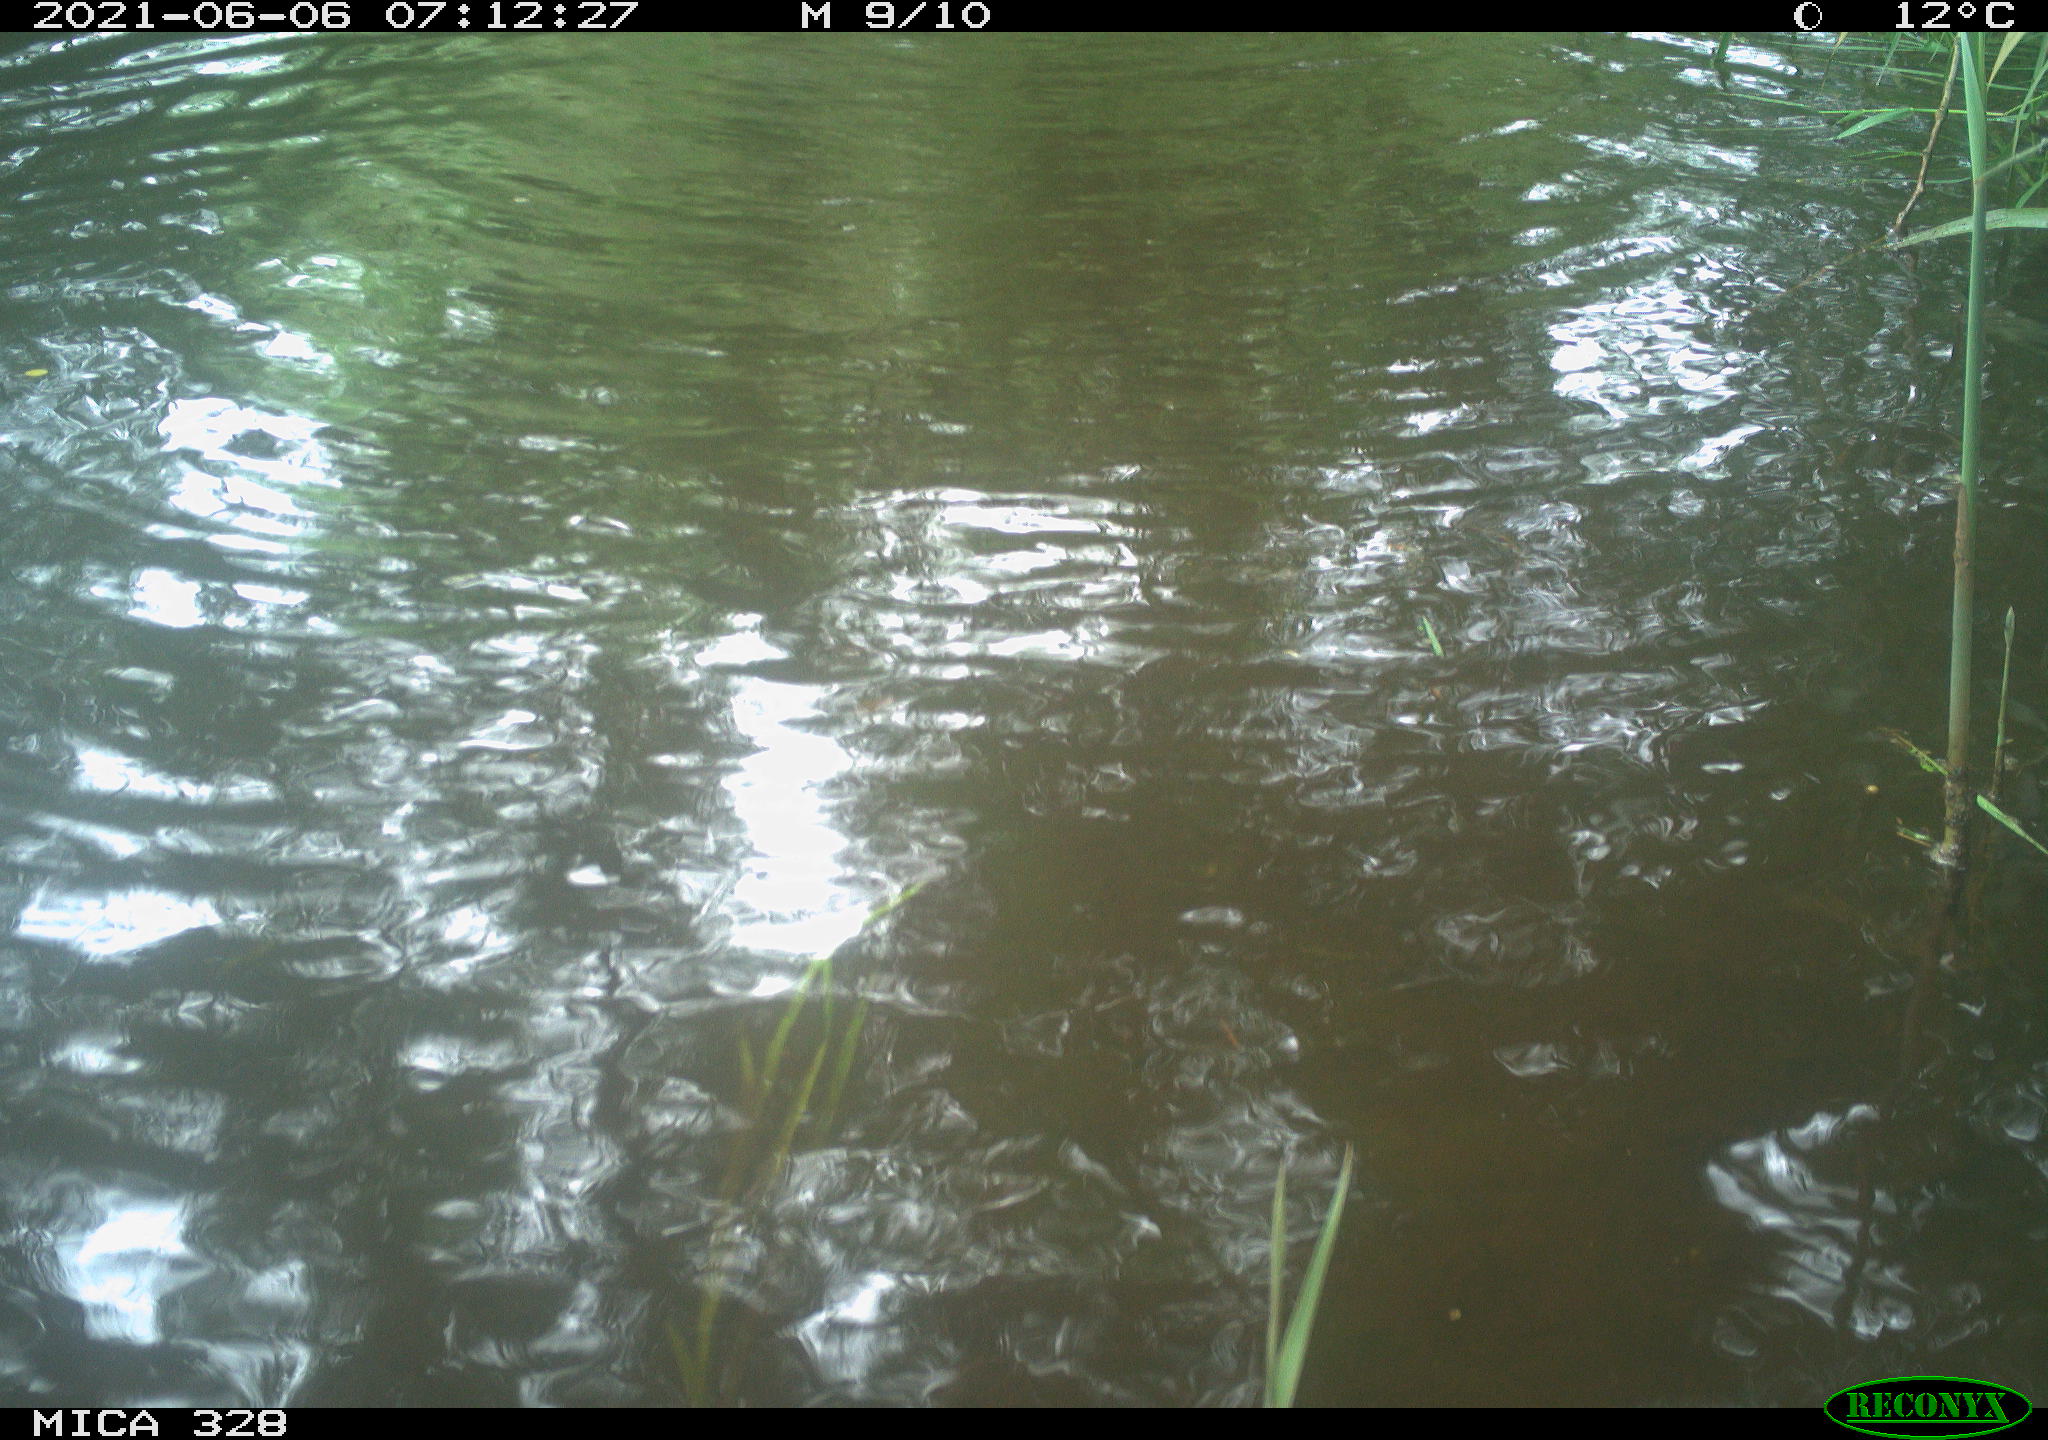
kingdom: Animalia
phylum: Chordata
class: Mammalia
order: Rodentia
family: Cricetidae
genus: Ondatra
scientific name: Ondatra zibethicus
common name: Muskrat
